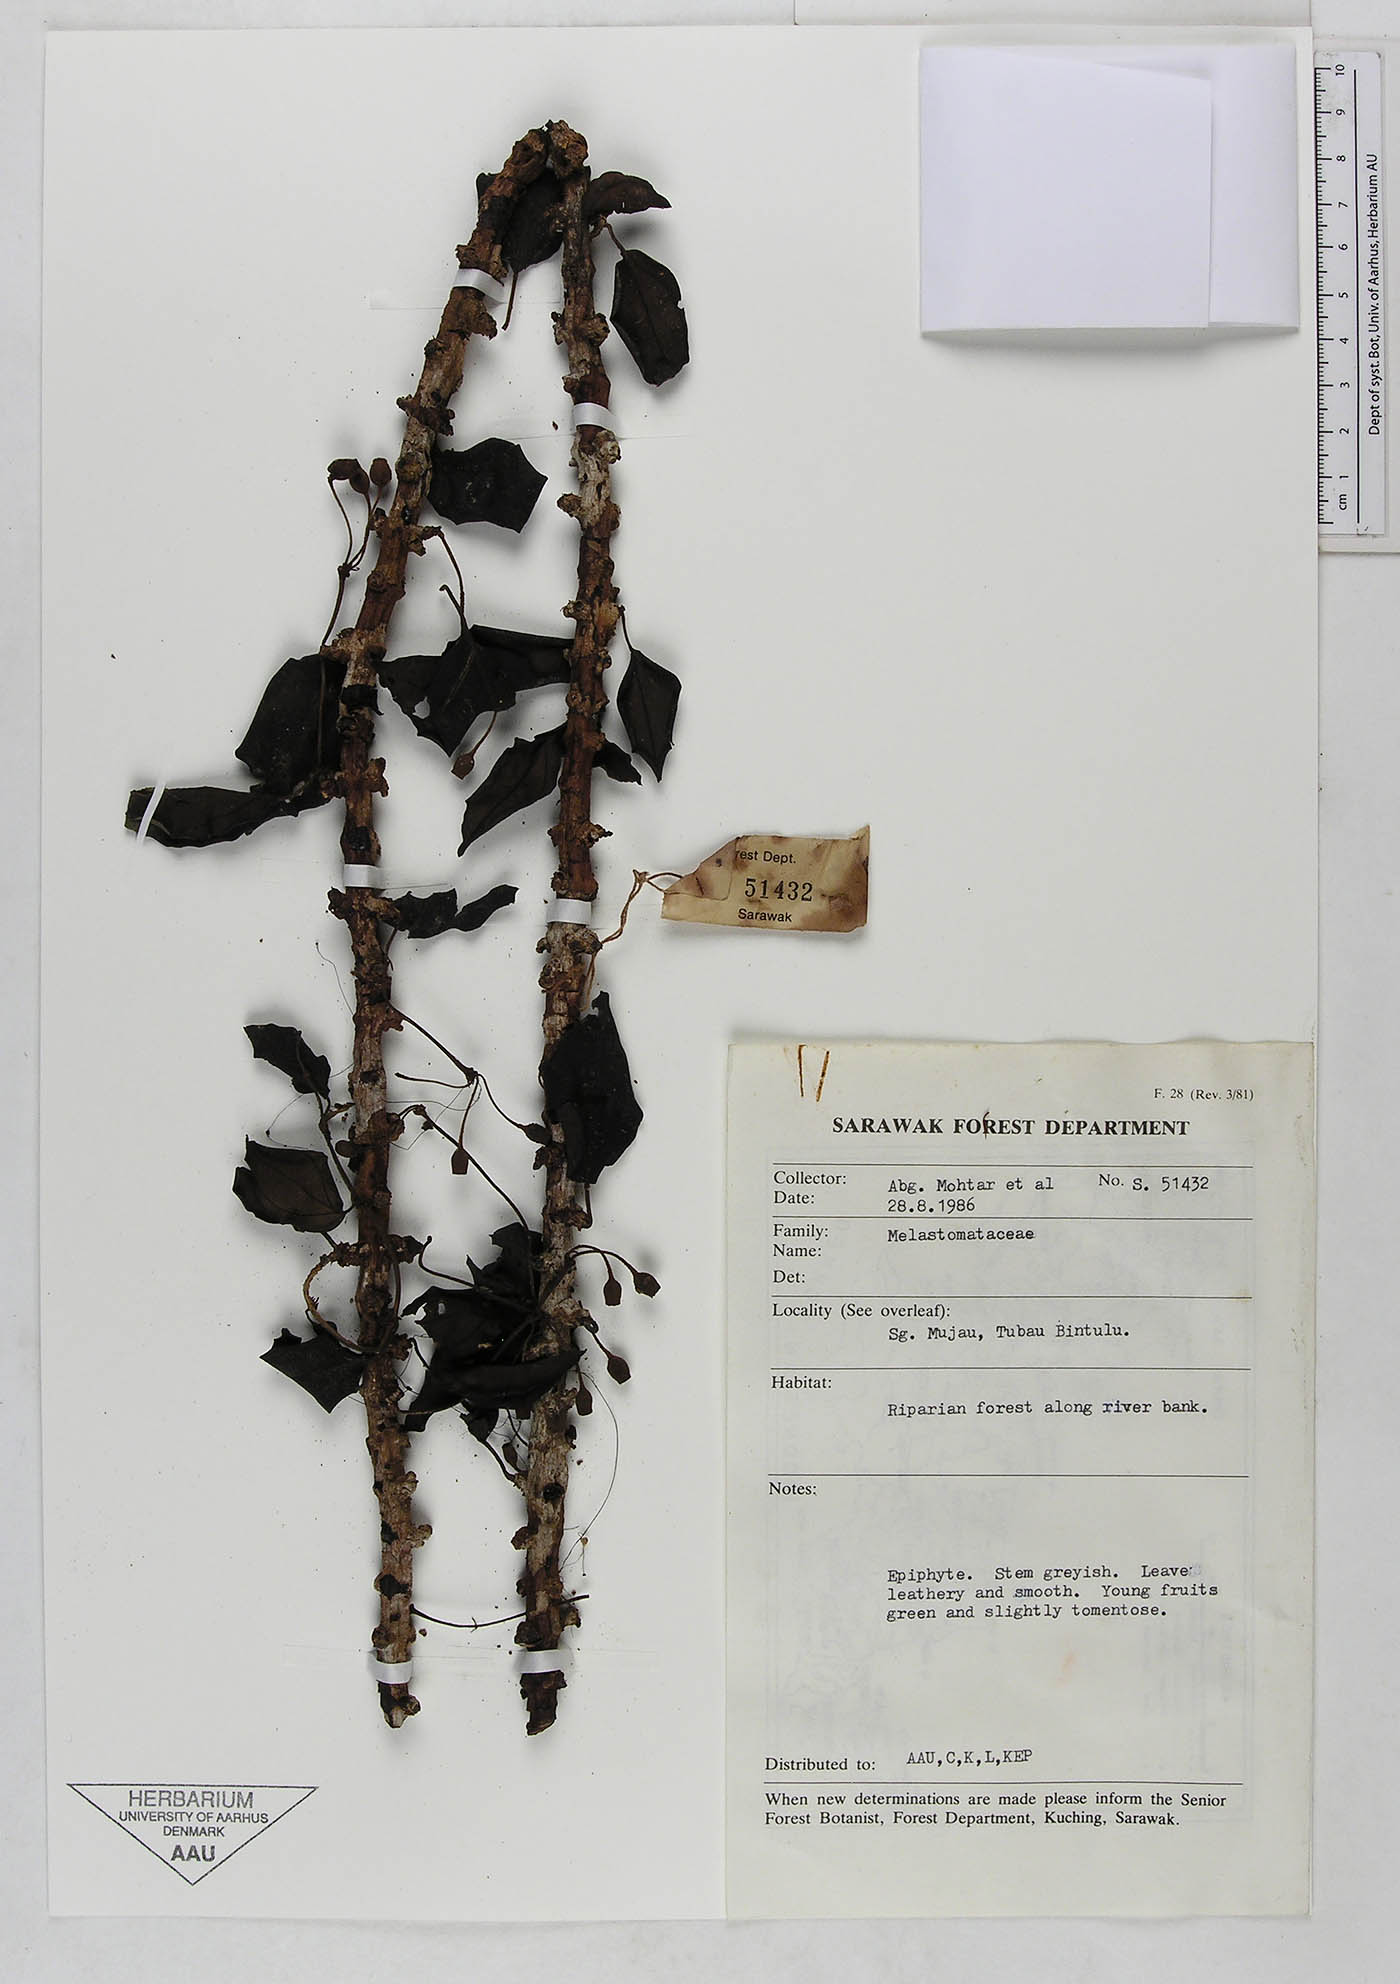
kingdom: Plantae
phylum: Tracheophyta
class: Magnoliopsida
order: Myrtales
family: Melastomataceae
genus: Catanthera
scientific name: Catanthera
